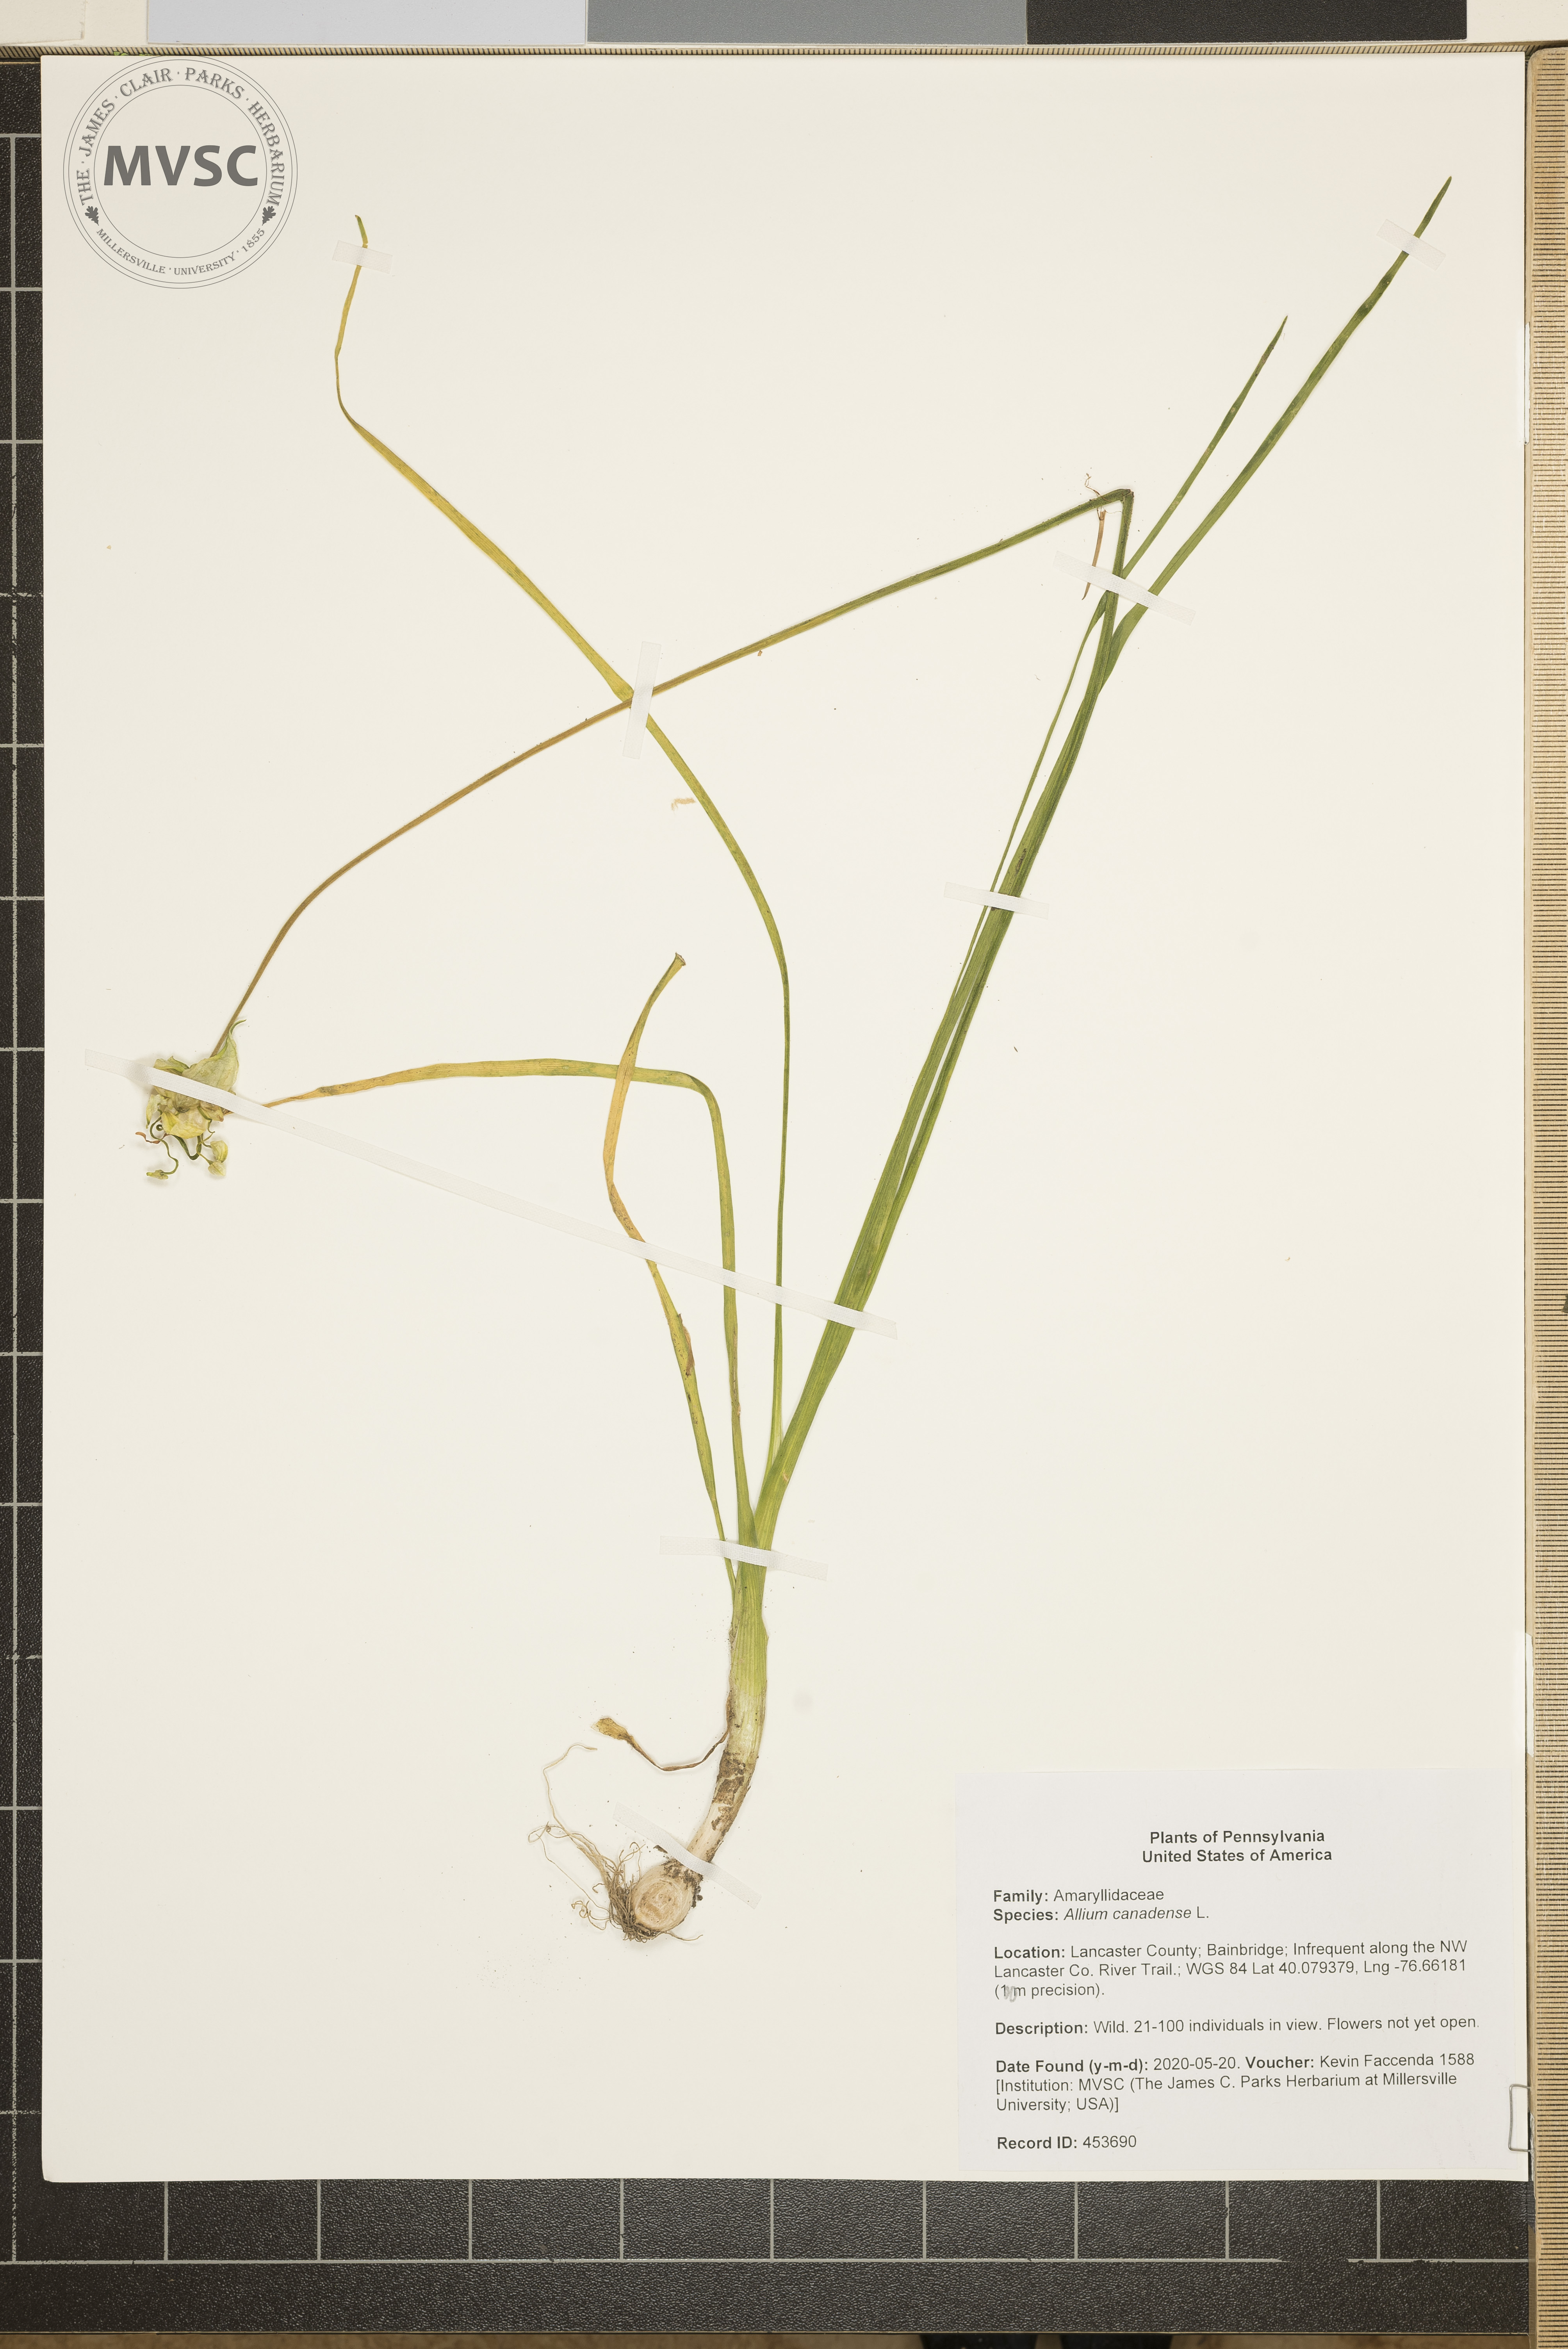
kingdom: Plantae
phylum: Tracheophyta
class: Liliopsida
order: Asparagales
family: Amaryllidaceae
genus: Allium
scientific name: Allium canadense
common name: Meadow garlic
